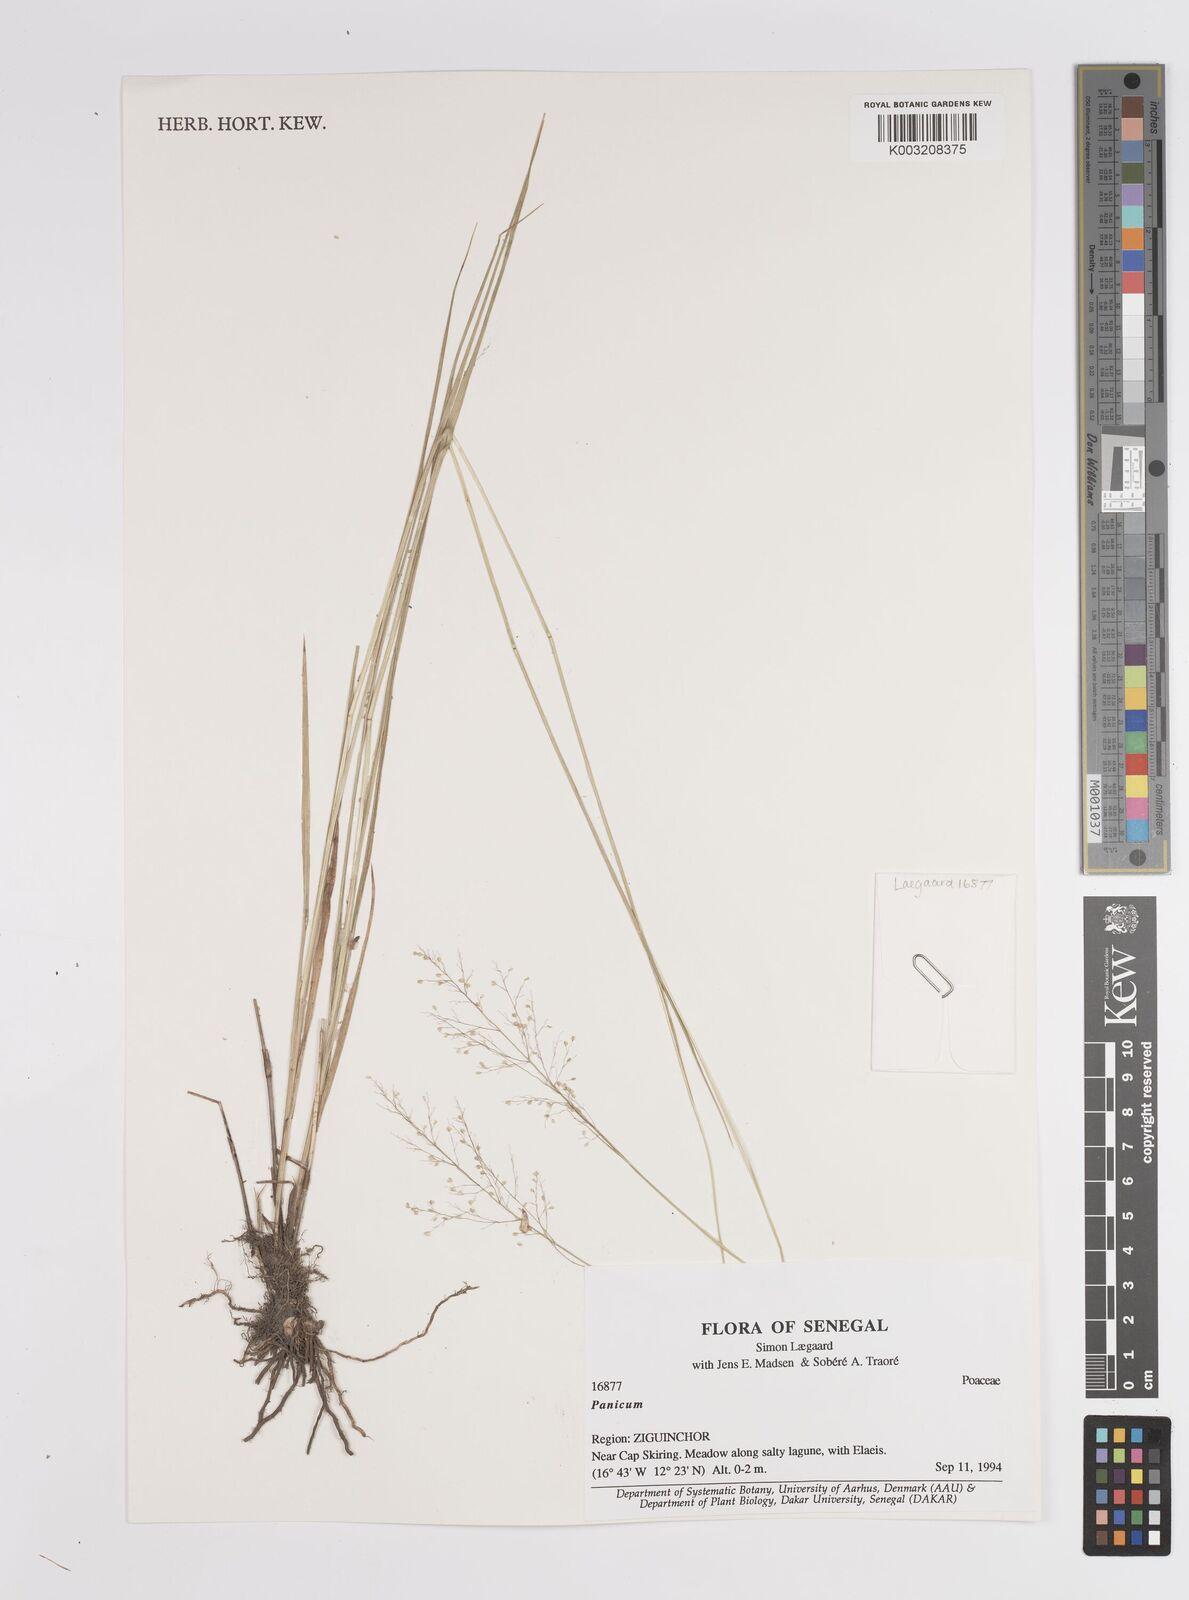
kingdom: Plantae
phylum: Tracheophyta
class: Liliopsida
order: Poales
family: Poaceae
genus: Panicum
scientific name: Panicum
